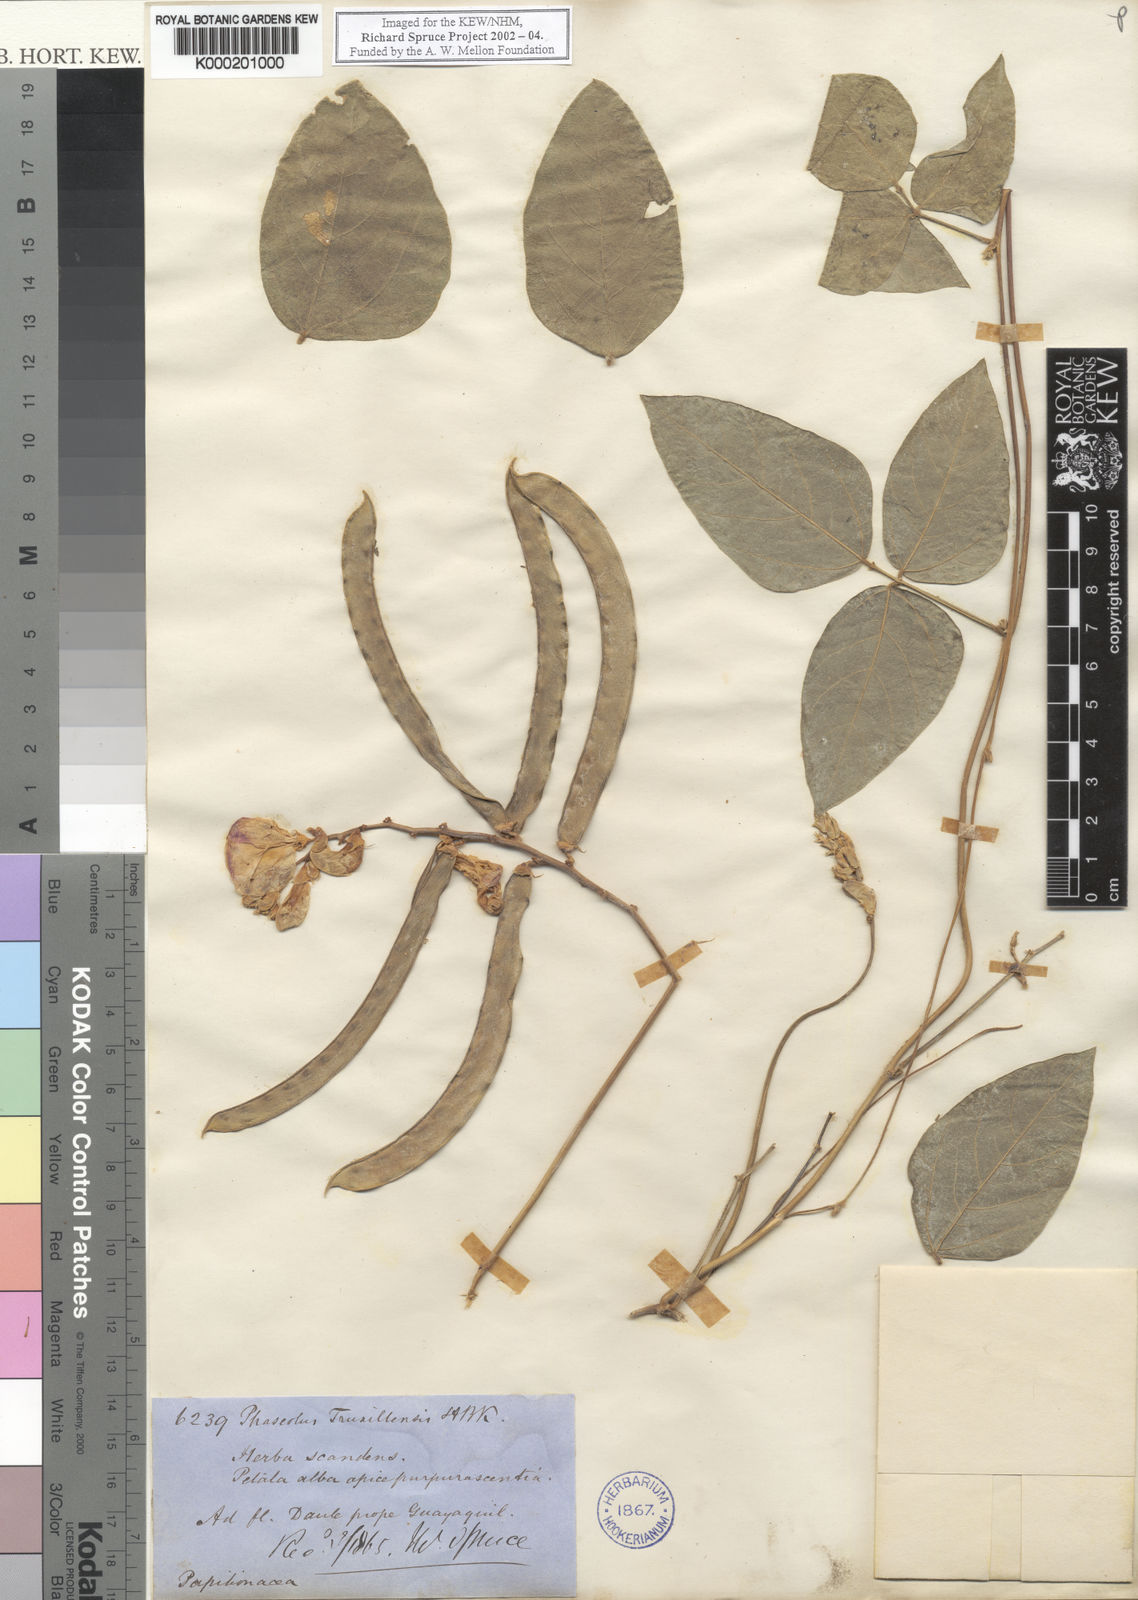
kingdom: Plantae
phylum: Tracheophyta
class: Magnoliopsida
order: Fabales
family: Fabaceae
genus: Vigna
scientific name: Vigna
